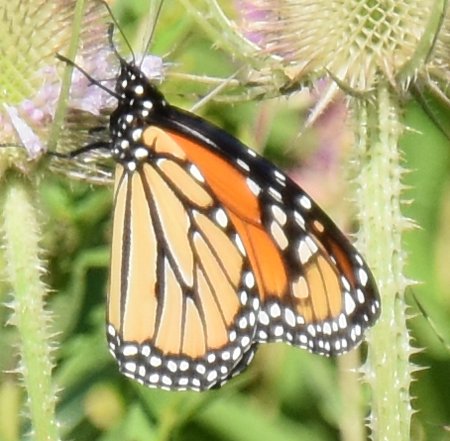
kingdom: Animalia
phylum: Arthropoda
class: Insecta
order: Lepidoptera
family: Nymphalidae
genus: Danaus
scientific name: Danaus plexippus
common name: Monarch
